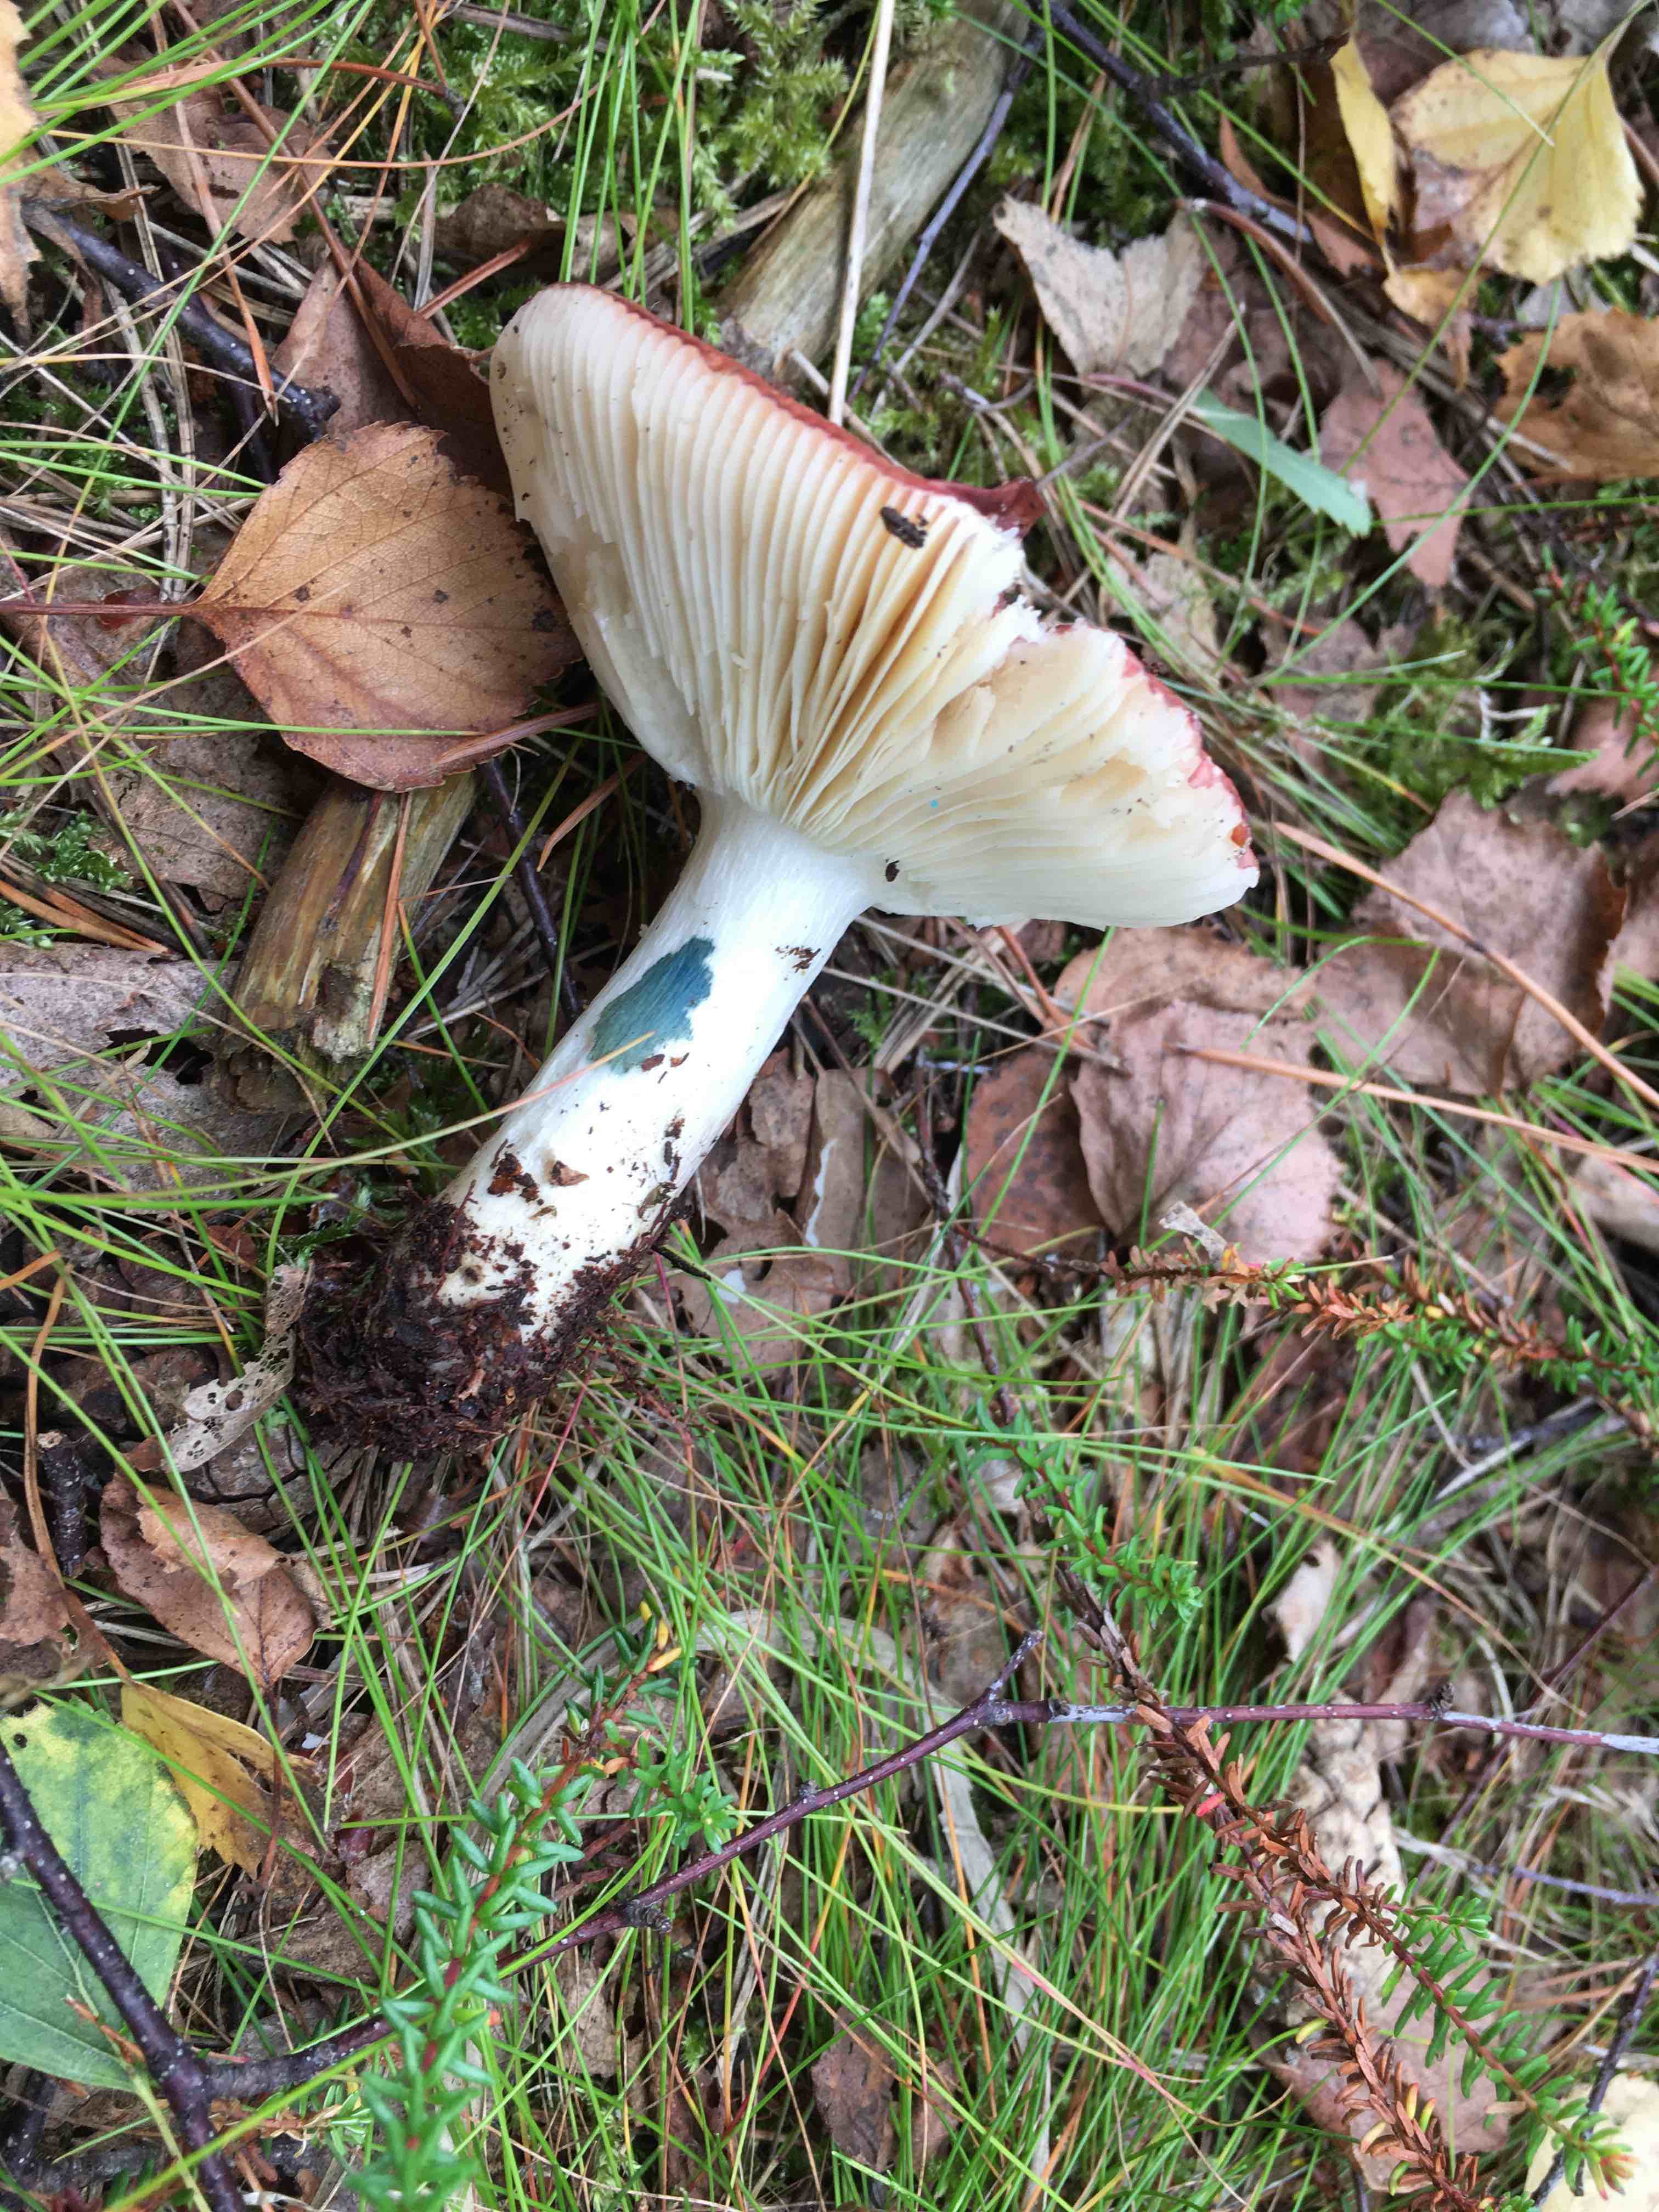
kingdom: Fungi
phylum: Basidiomycota
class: Agaricomycetes
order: Russulales
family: Russulaceae
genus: Russula
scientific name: Russula velenovskyi
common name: orangerød skørhat
